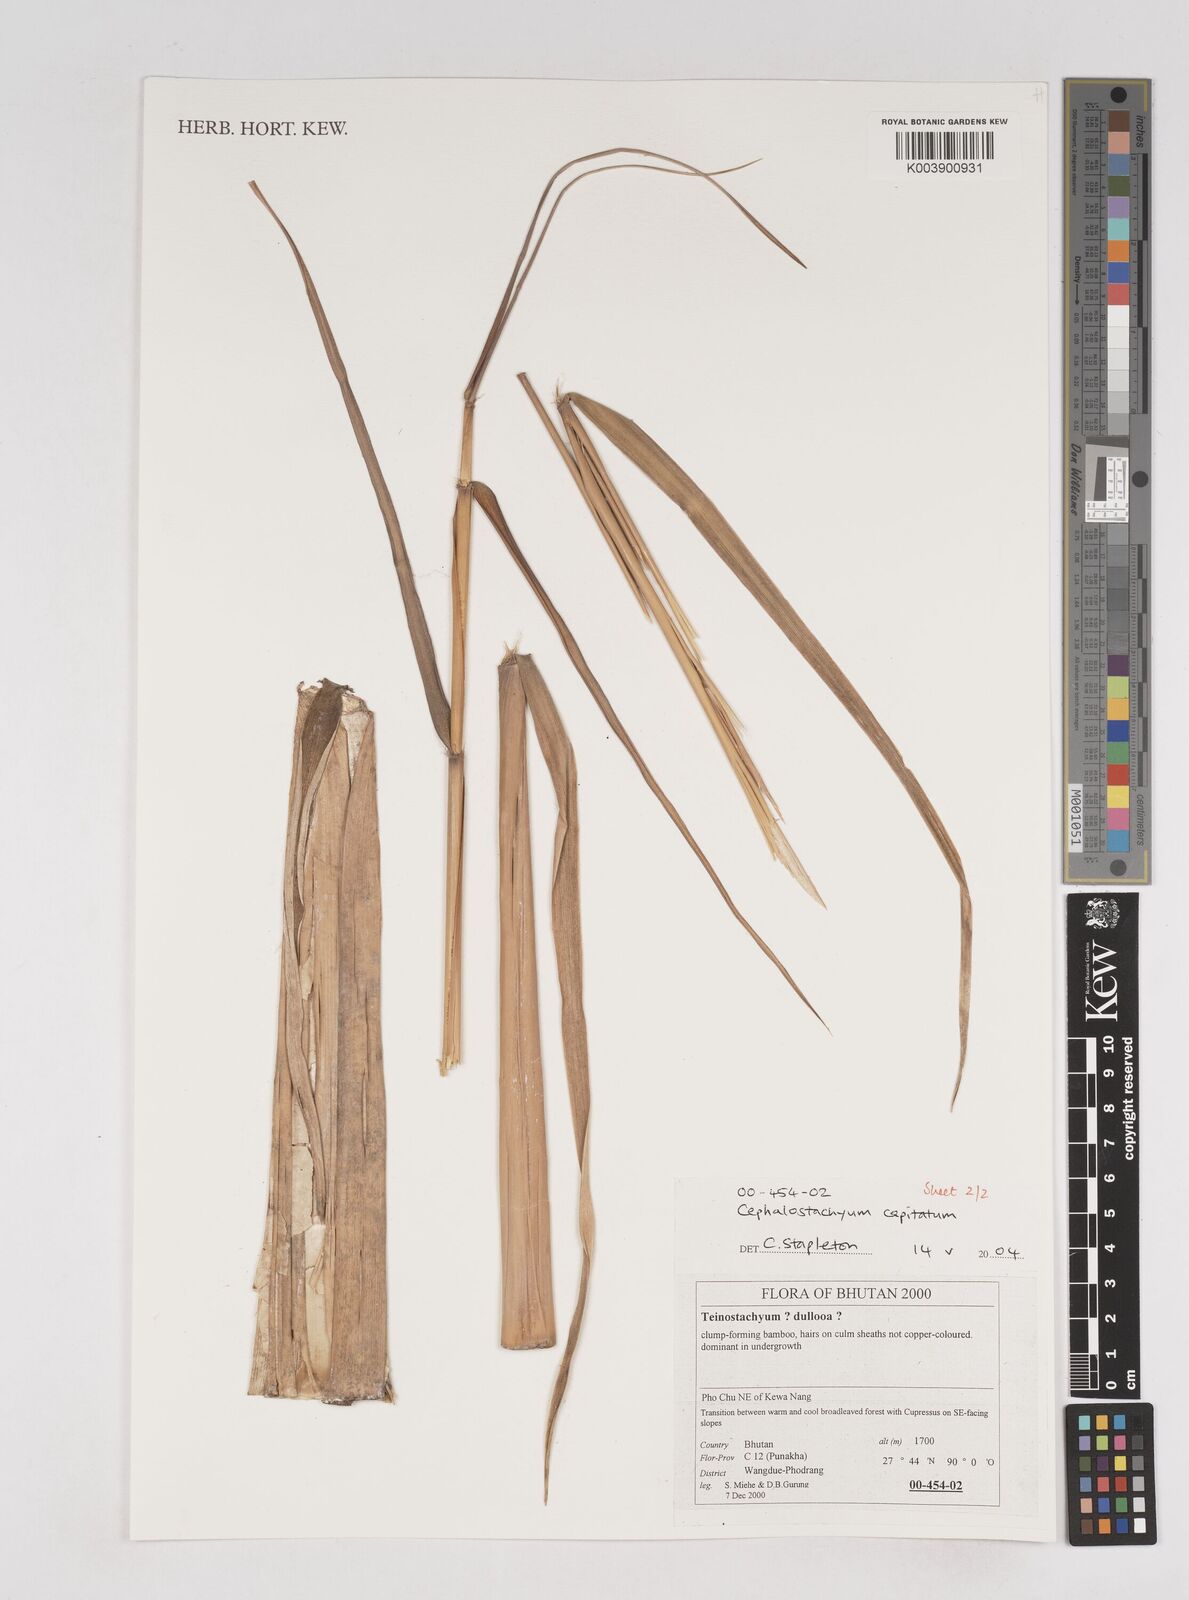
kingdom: Plantae
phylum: Tracheophyta
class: Liliopsida
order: Poales
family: Poaceae
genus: Cephalostachyum
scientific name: Cephalostachyum capitatum
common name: Hollow bamboo
